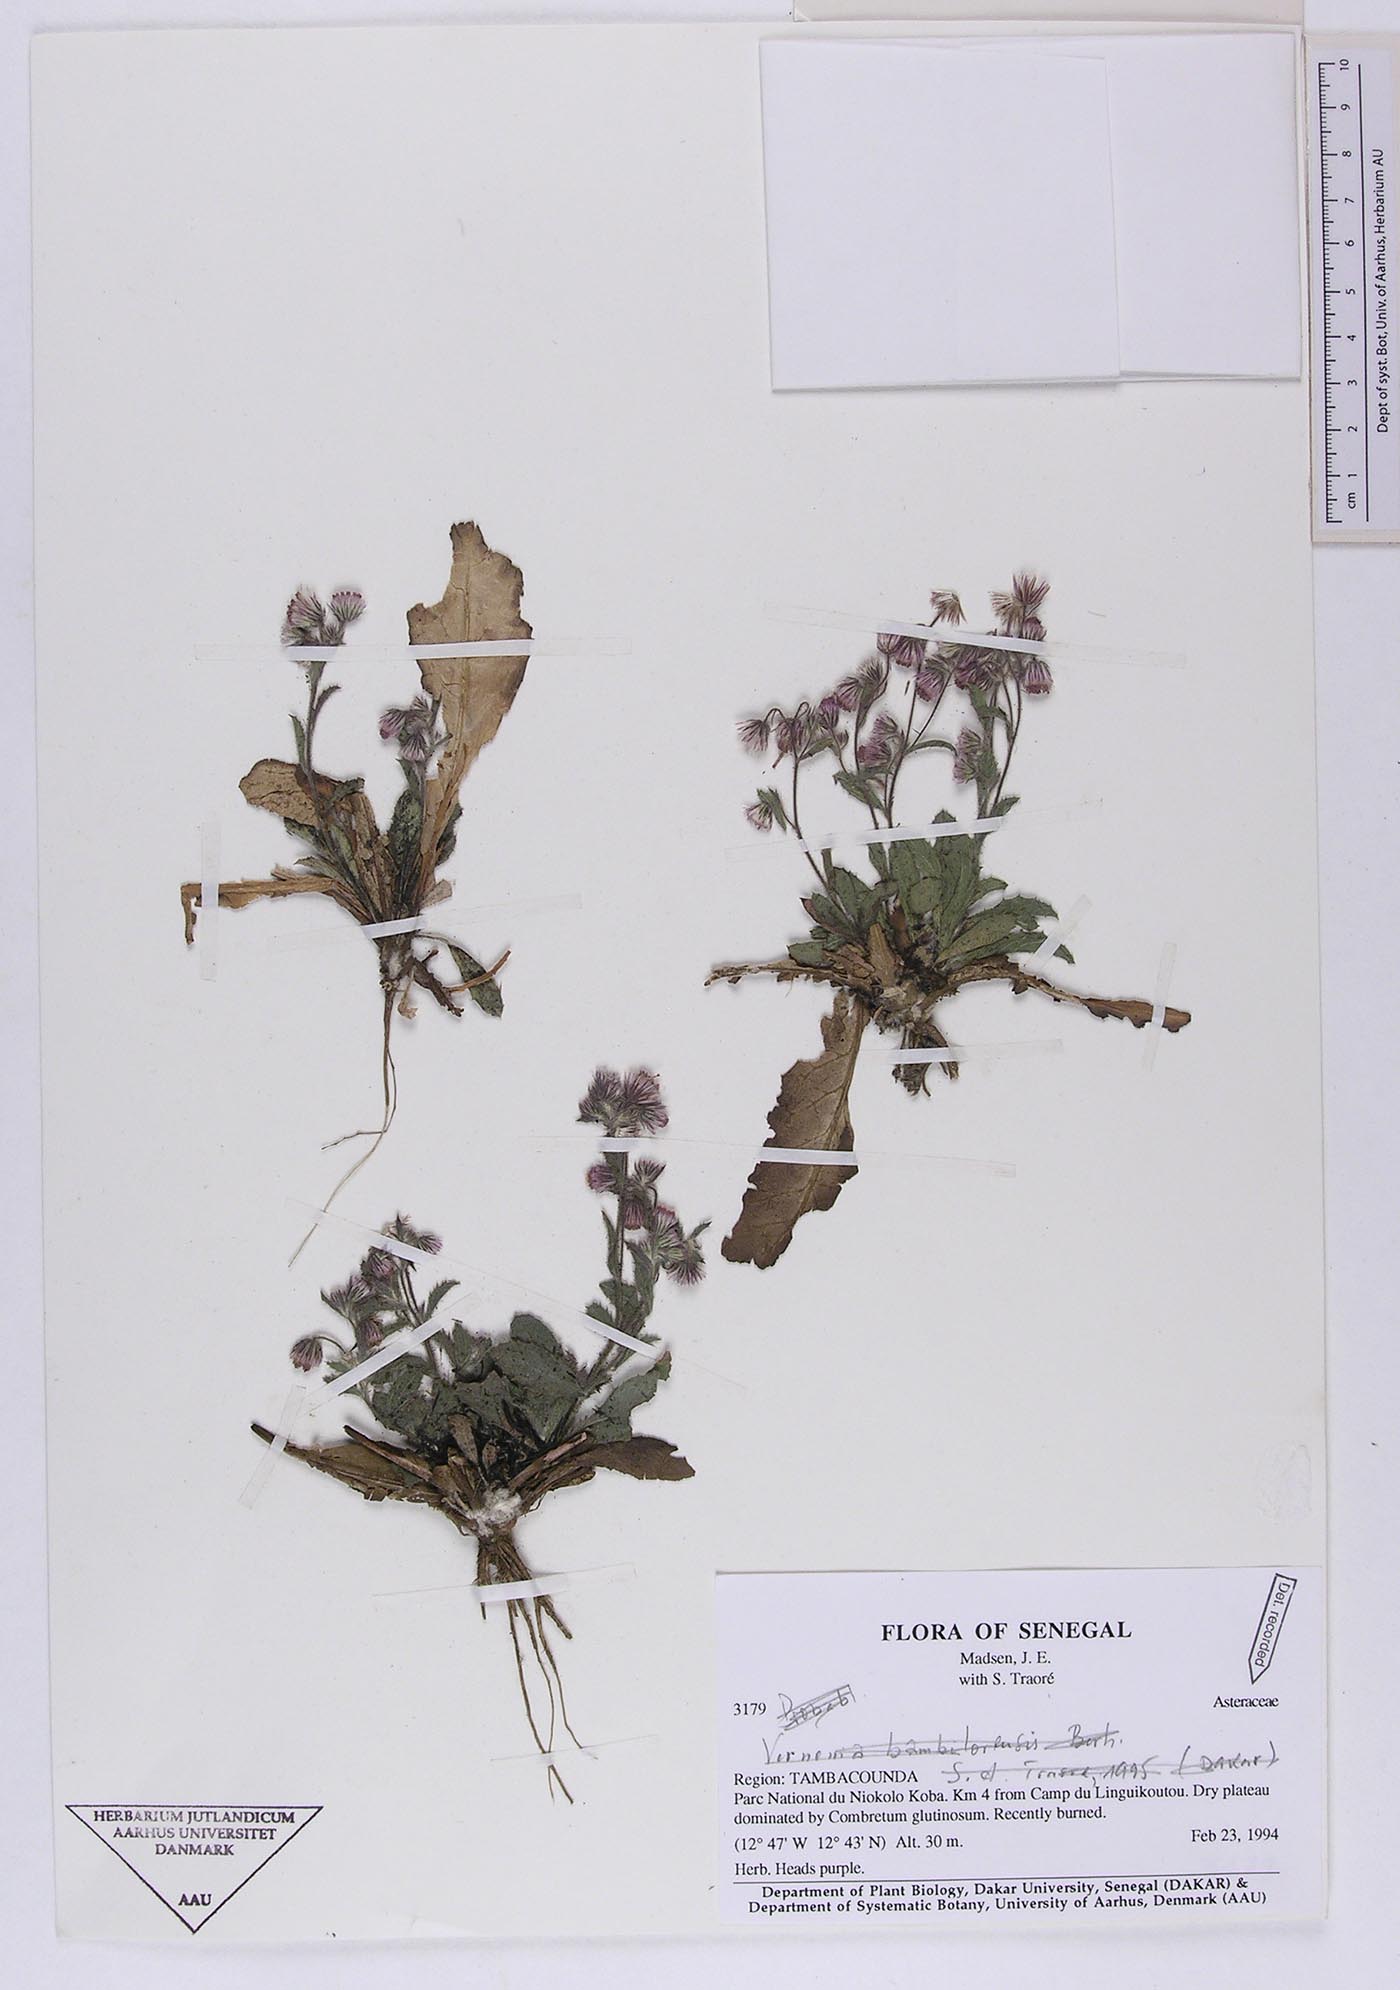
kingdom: Plantae
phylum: Tracheophyta
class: Magnoliopsida
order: Asterales
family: Asteraceae
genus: Nidorella
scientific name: Nidorella aegyptiaca
